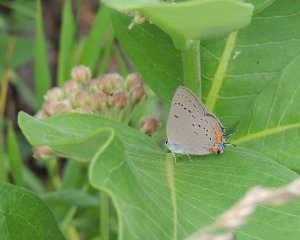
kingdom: Animalia
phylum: Arthropoda
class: Insecta
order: Lepidoptera
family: Lycaenidae
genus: Strymon
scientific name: Strymon acadica
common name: Acadian Hairstreak
